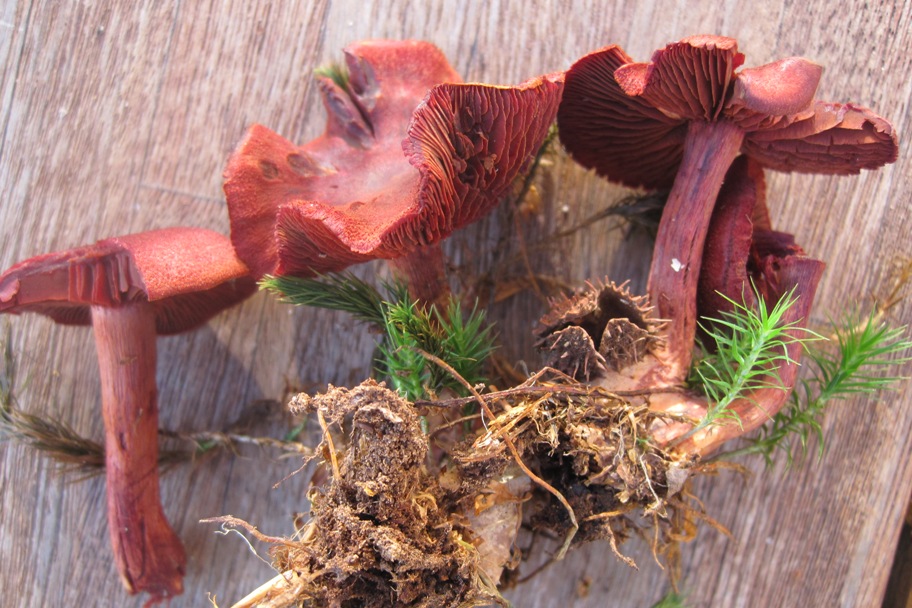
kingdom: Fungi
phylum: Basidiomycota
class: Agaricomycetes
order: Agaricales
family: Cortinariaceae
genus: Cortinarius
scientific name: Cortinarius sanguineus
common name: Bloodred webcap
